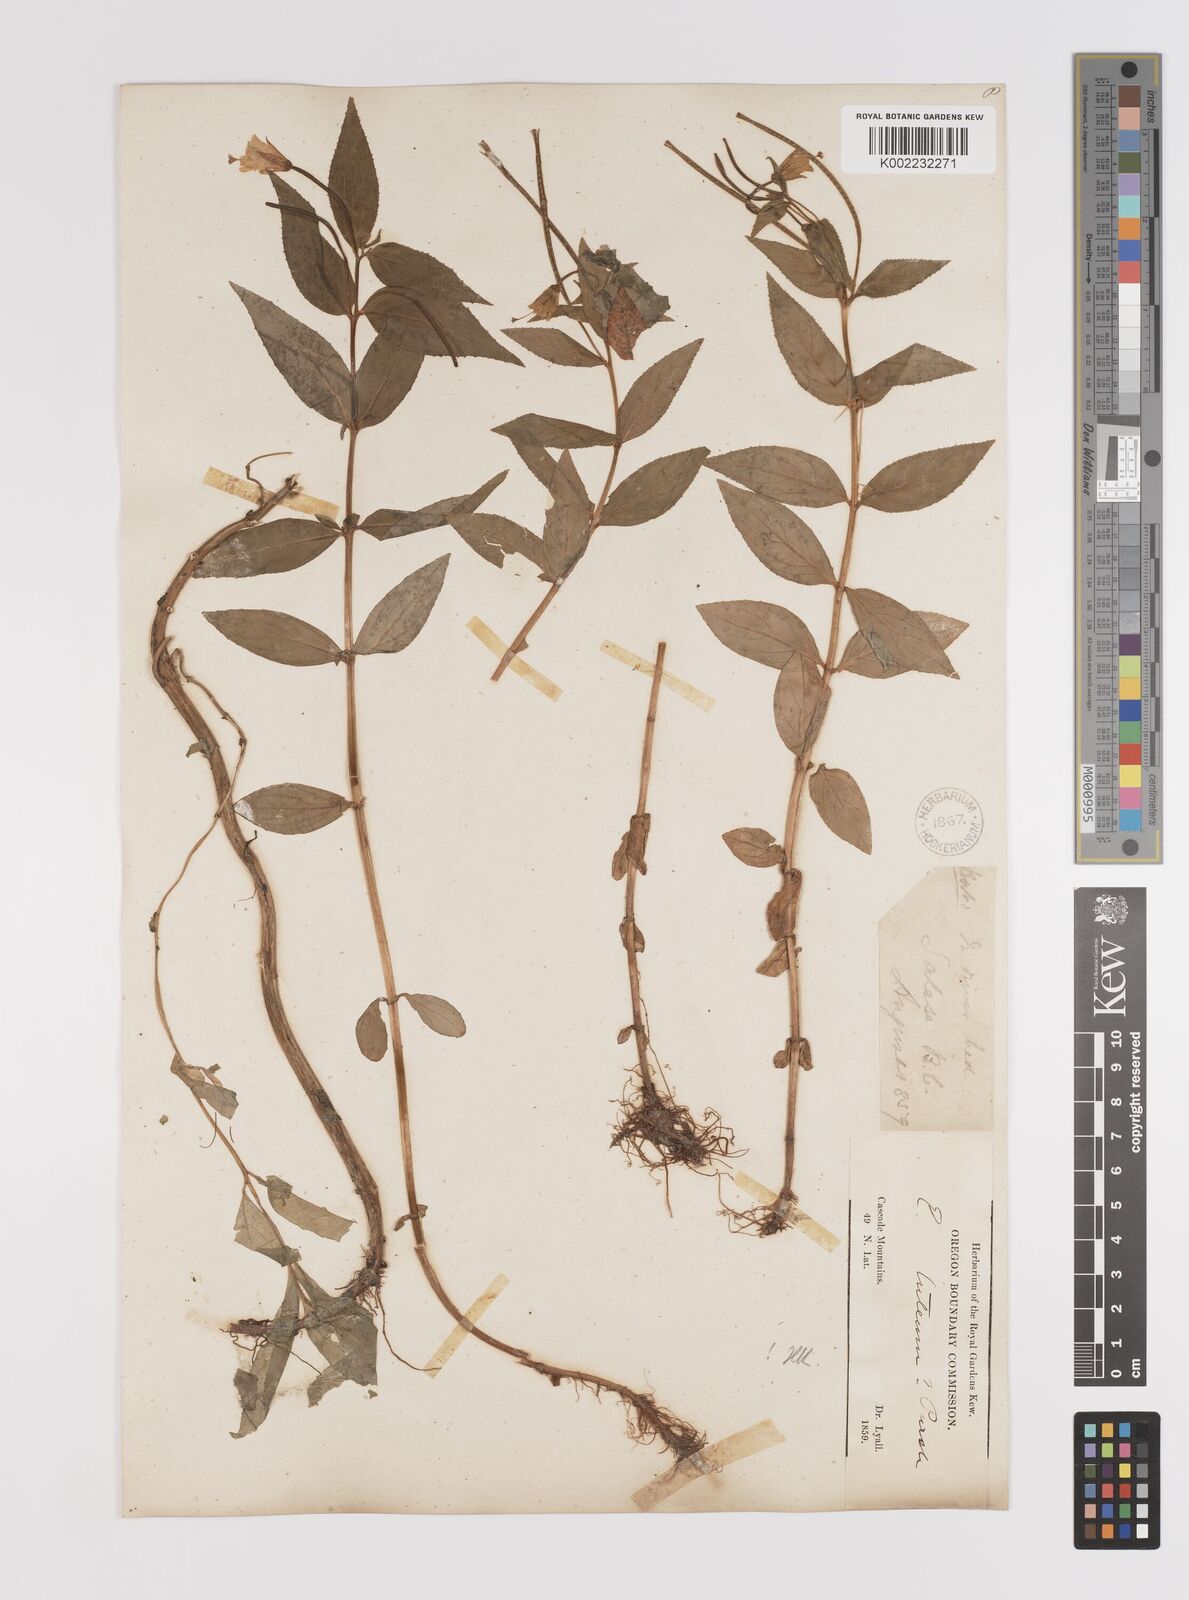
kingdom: Plantae
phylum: Tracheophyta
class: Magnoliopsida
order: Myrtales
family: Onagraceae
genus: Epilobium
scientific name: Epilobium luteum
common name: Yellow willowherb
